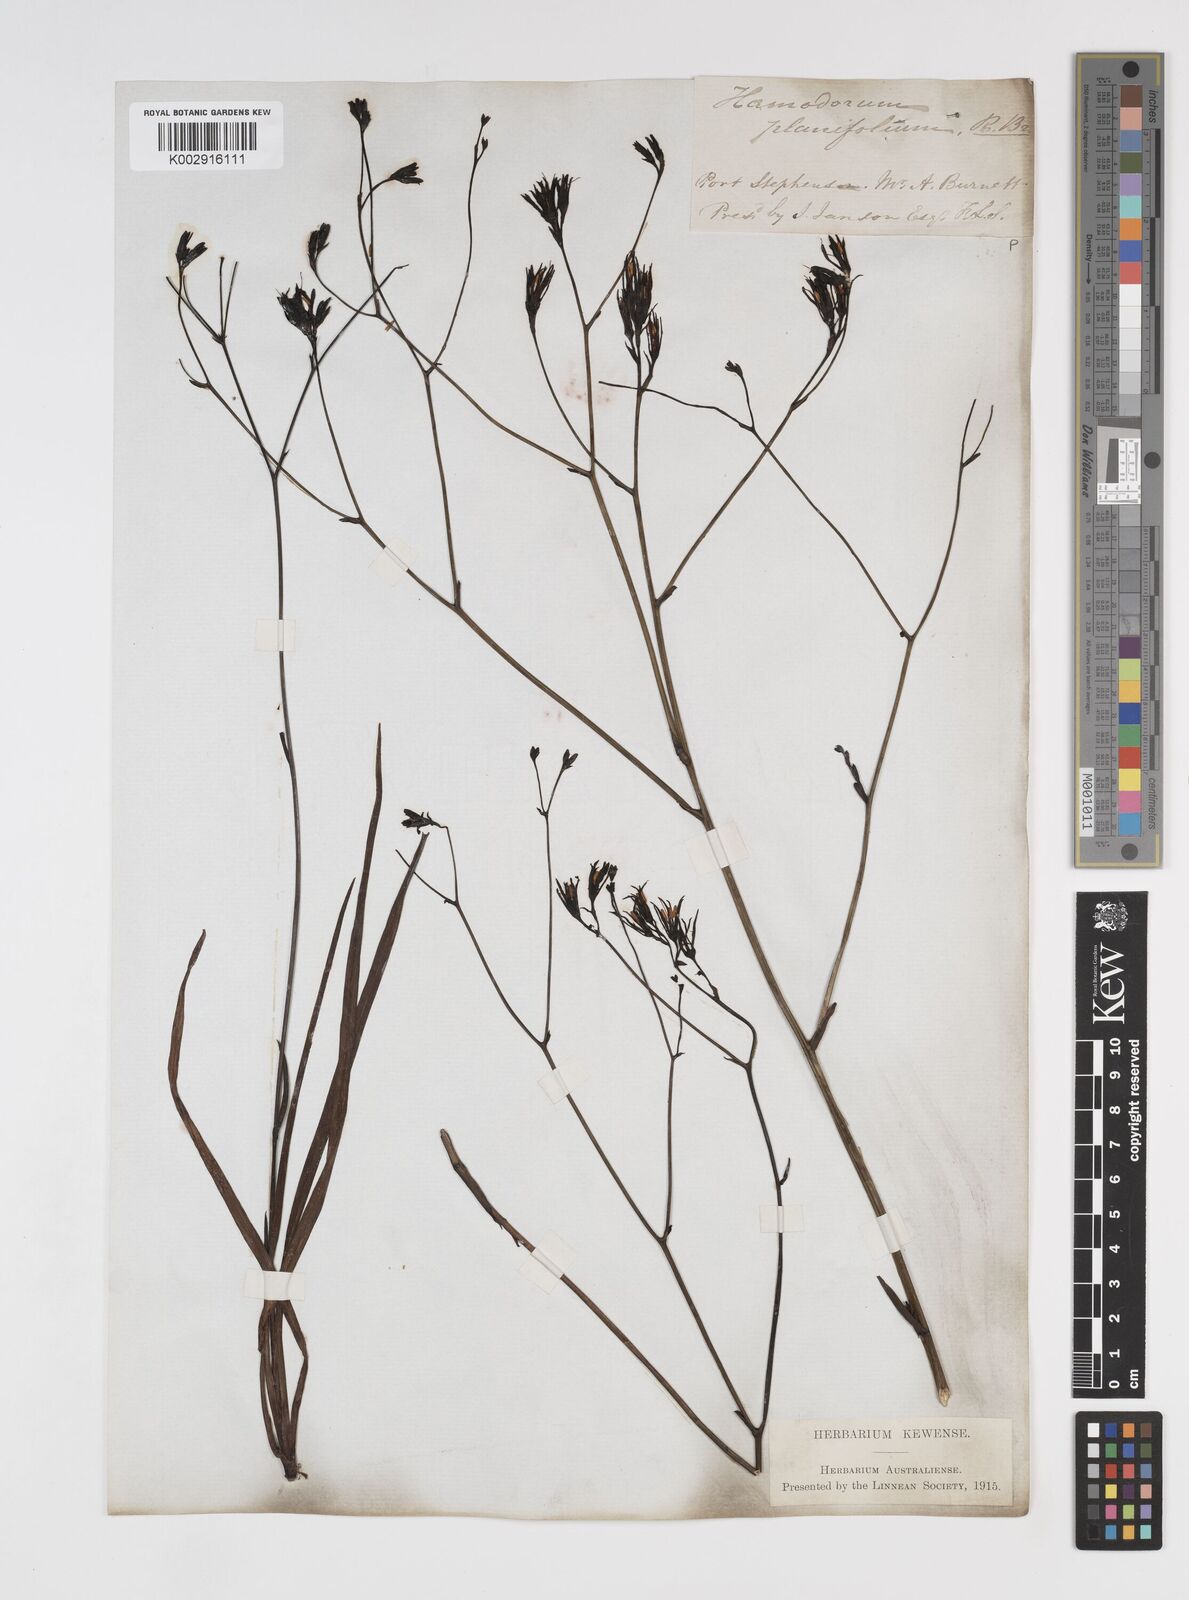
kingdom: Plantae
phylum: Tracheophyta
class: Liliopsida
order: Commelinales
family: Haemodoraceae
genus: Haemodorum
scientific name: Haemodorum planifolium
